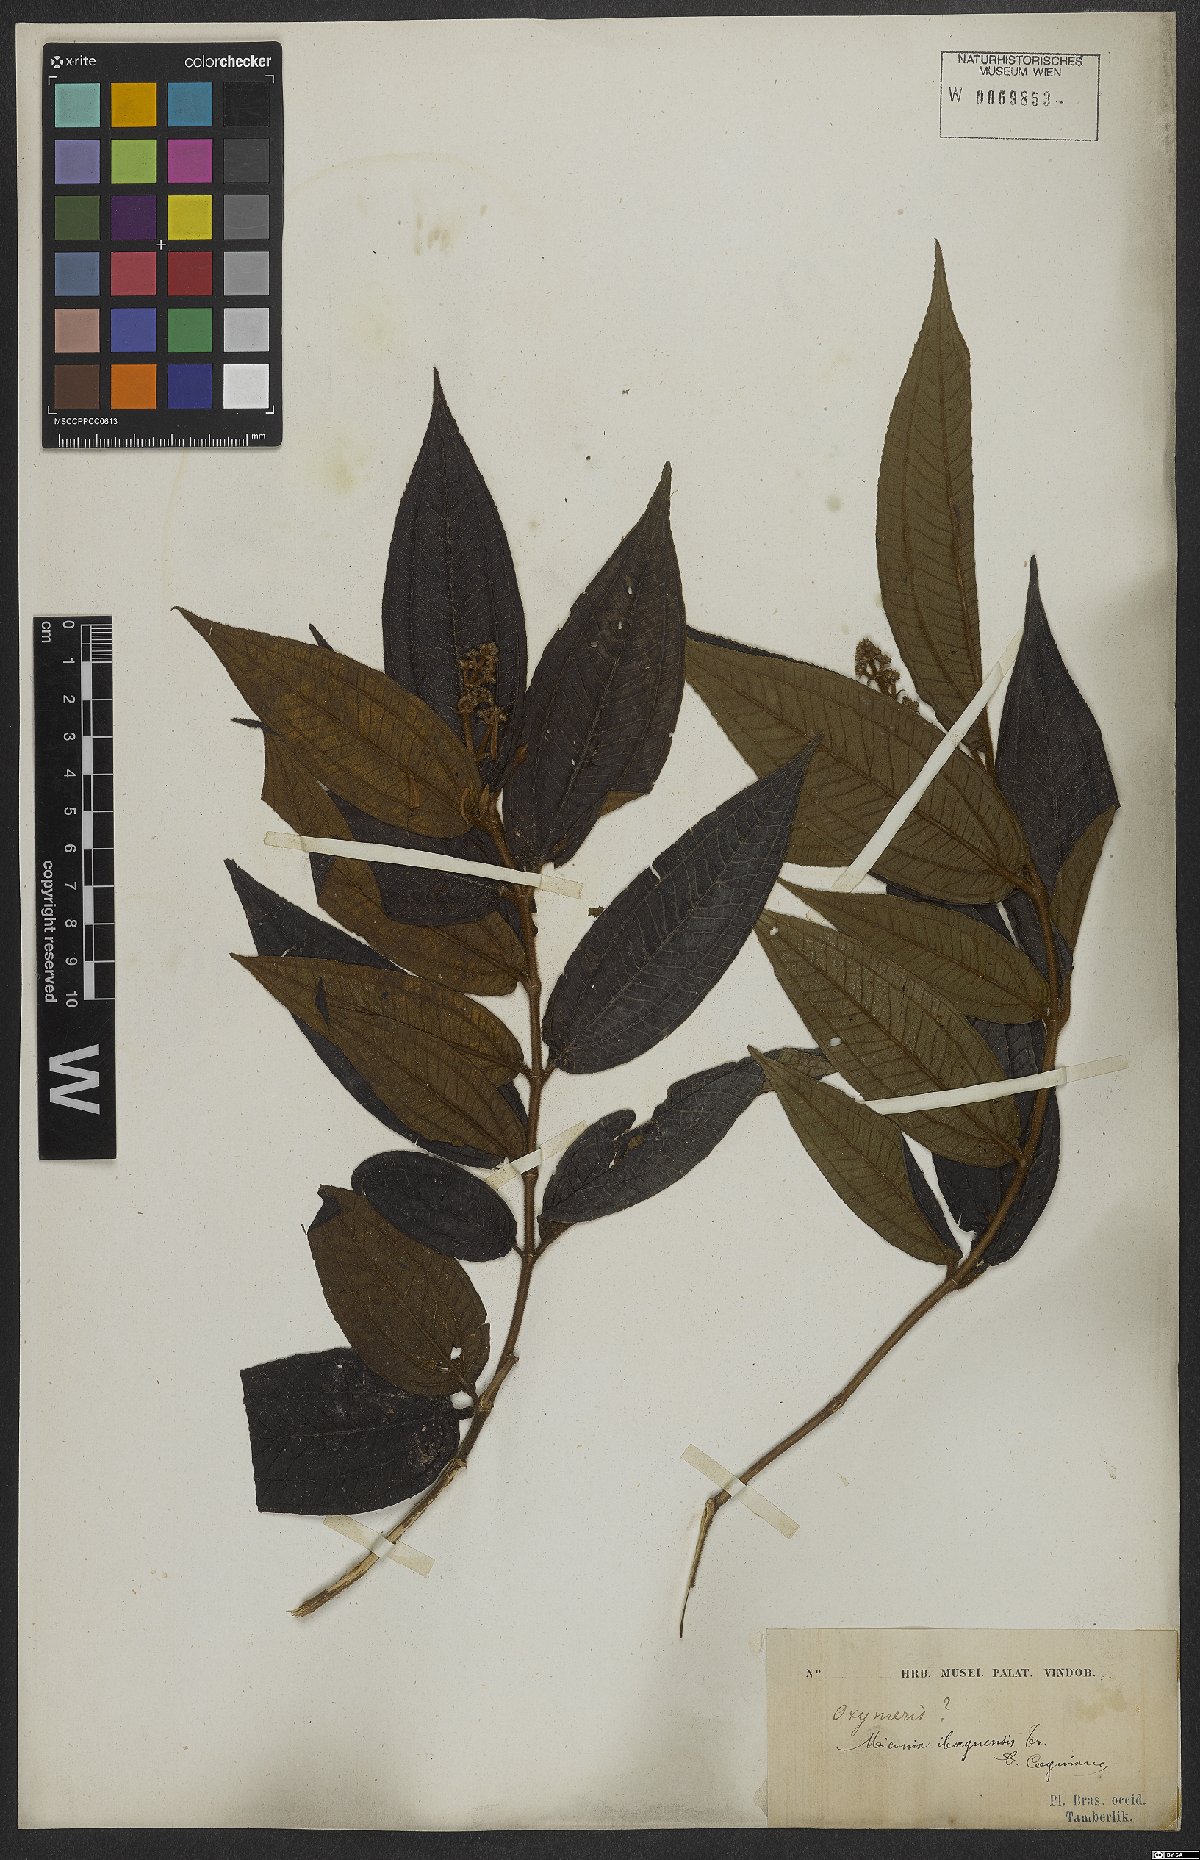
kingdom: Plantae
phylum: Tracheophyta
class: Magnoliopsida
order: Myrtales
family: Melastomataceae
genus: Miconia
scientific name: Miconia ibaguensis
